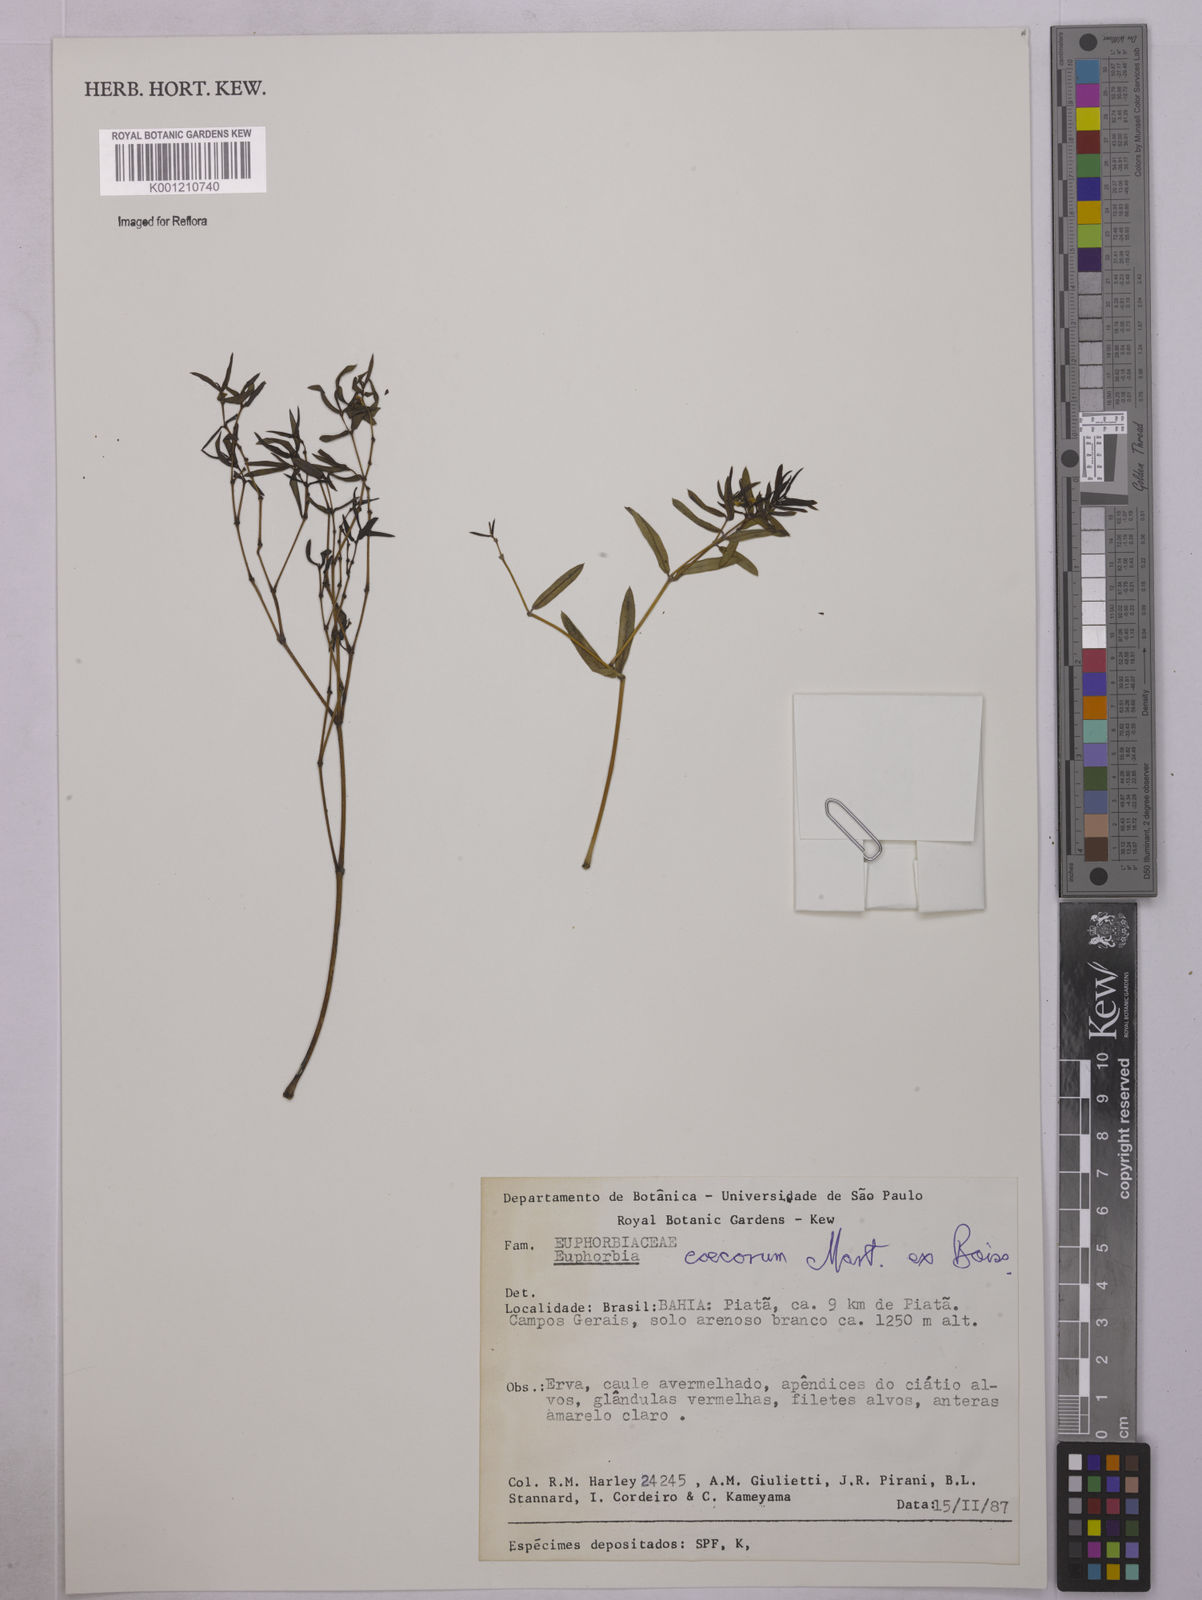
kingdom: Plantae
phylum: Tracheophyta
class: Magnoliopsida
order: Malpighiales
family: Euphorbiaceae
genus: Euphorbia
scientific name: Euphorbia potentilloides
